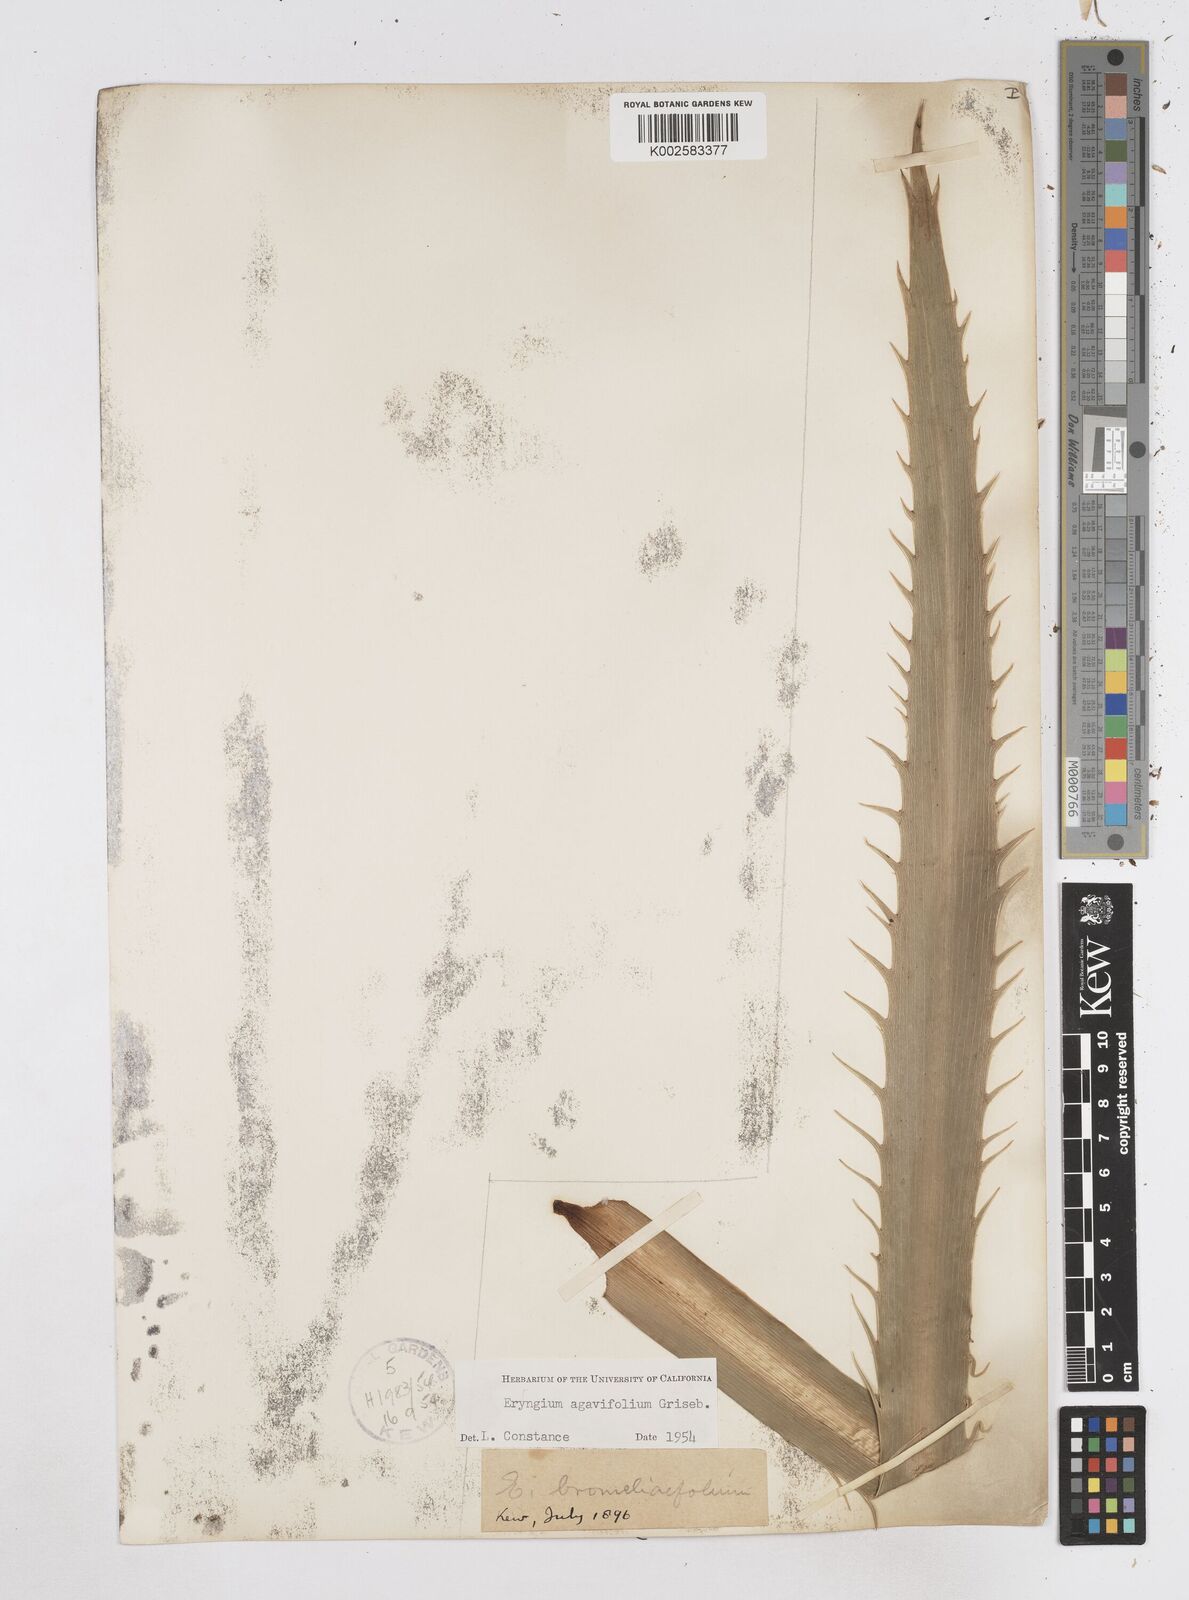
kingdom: Plantae
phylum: Tracheophyta
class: Magnoliopsida
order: Apiales
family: Apiaceae
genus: Eryngium
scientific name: Eryngium agavifolium
